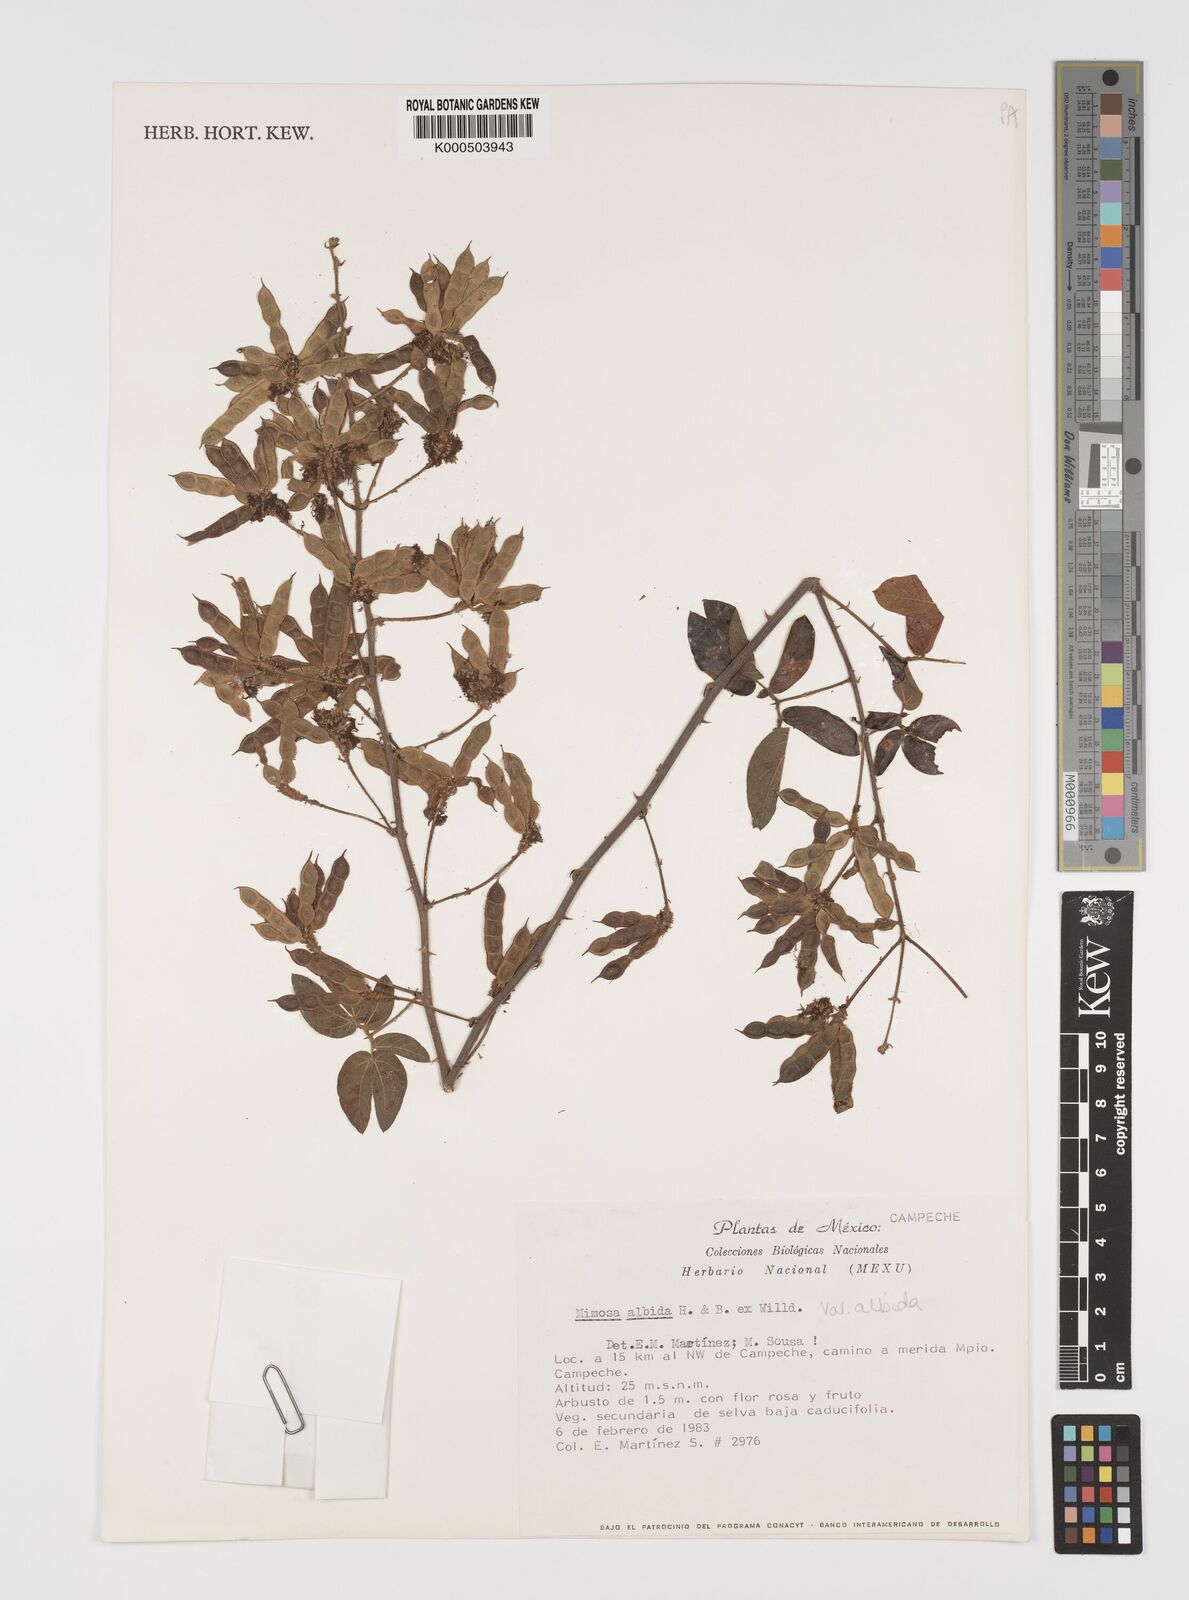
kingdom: Plantae
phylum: Tracheophyta
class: Magnoliopsida
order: Fabales
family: Fabaceae
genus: Mimosa
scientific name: Mimosa albida
